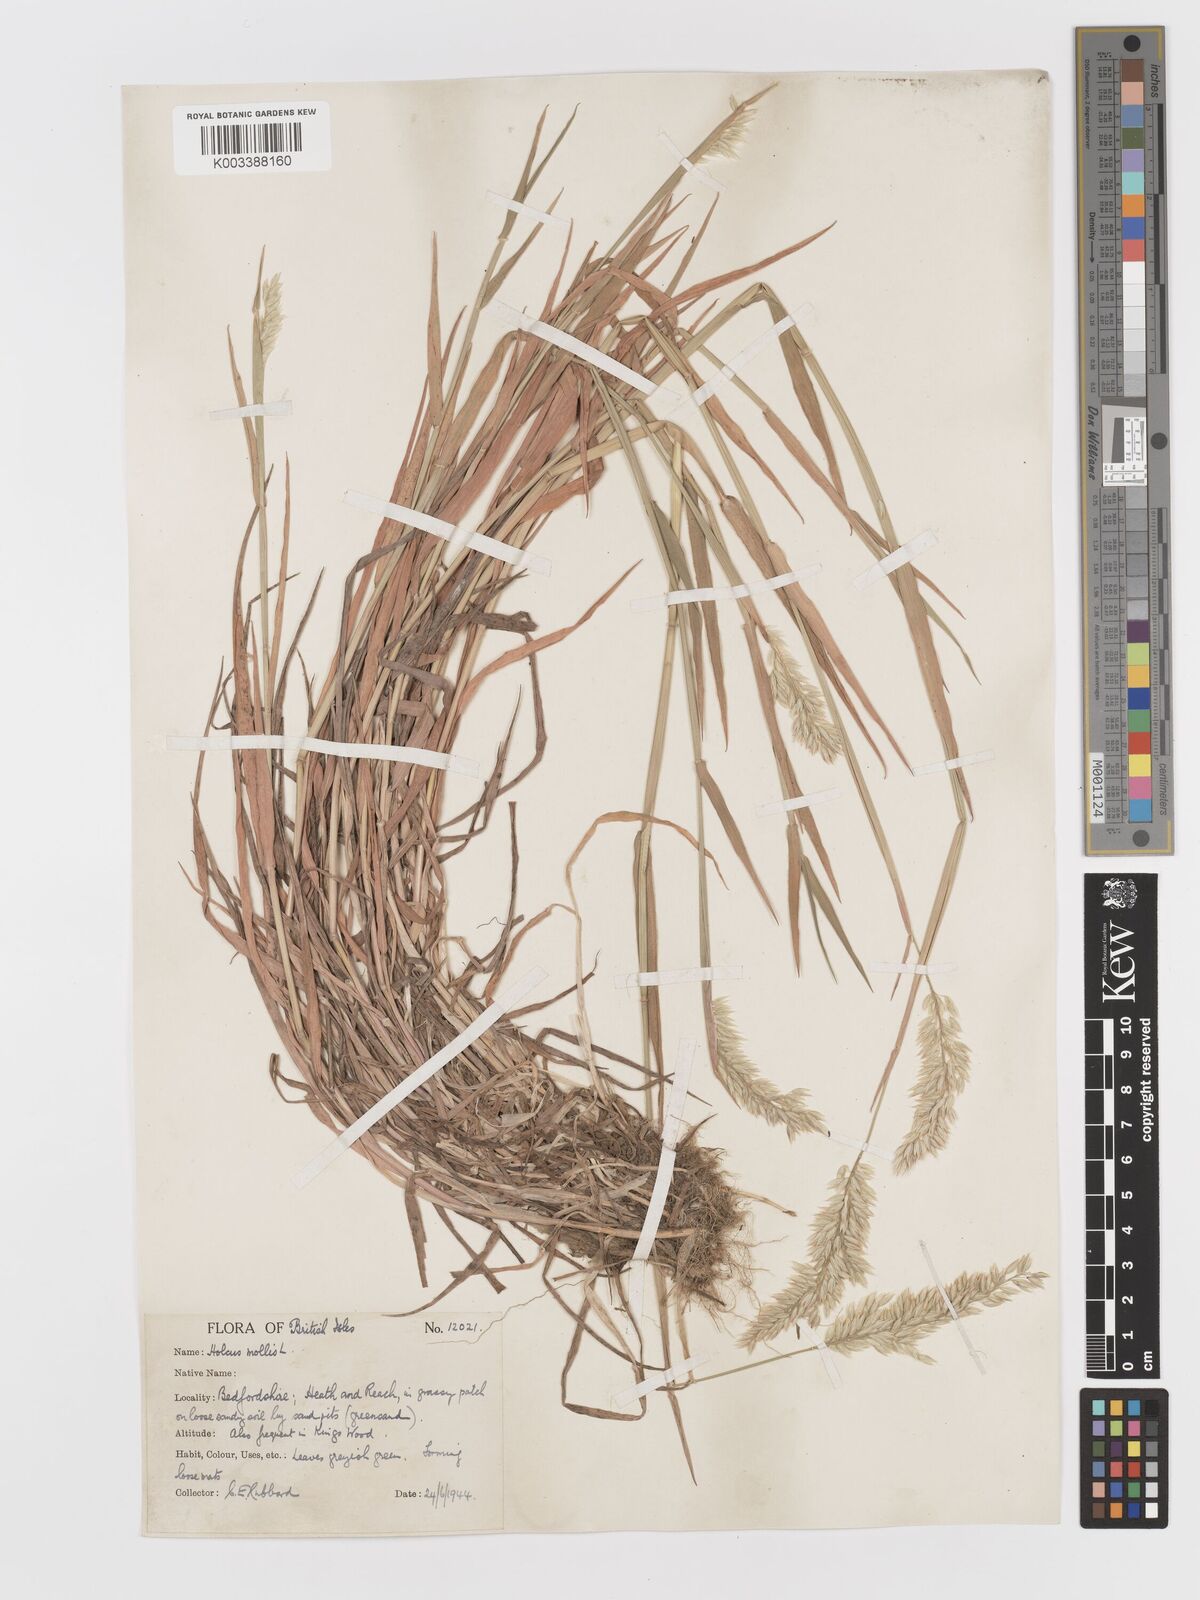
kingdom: Plantae
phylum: Tracheophyta
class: Liliopsida
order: Poales
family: Poaceae
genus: Holcus
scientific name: Holcus mollis
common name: Creeping velvetgrass
